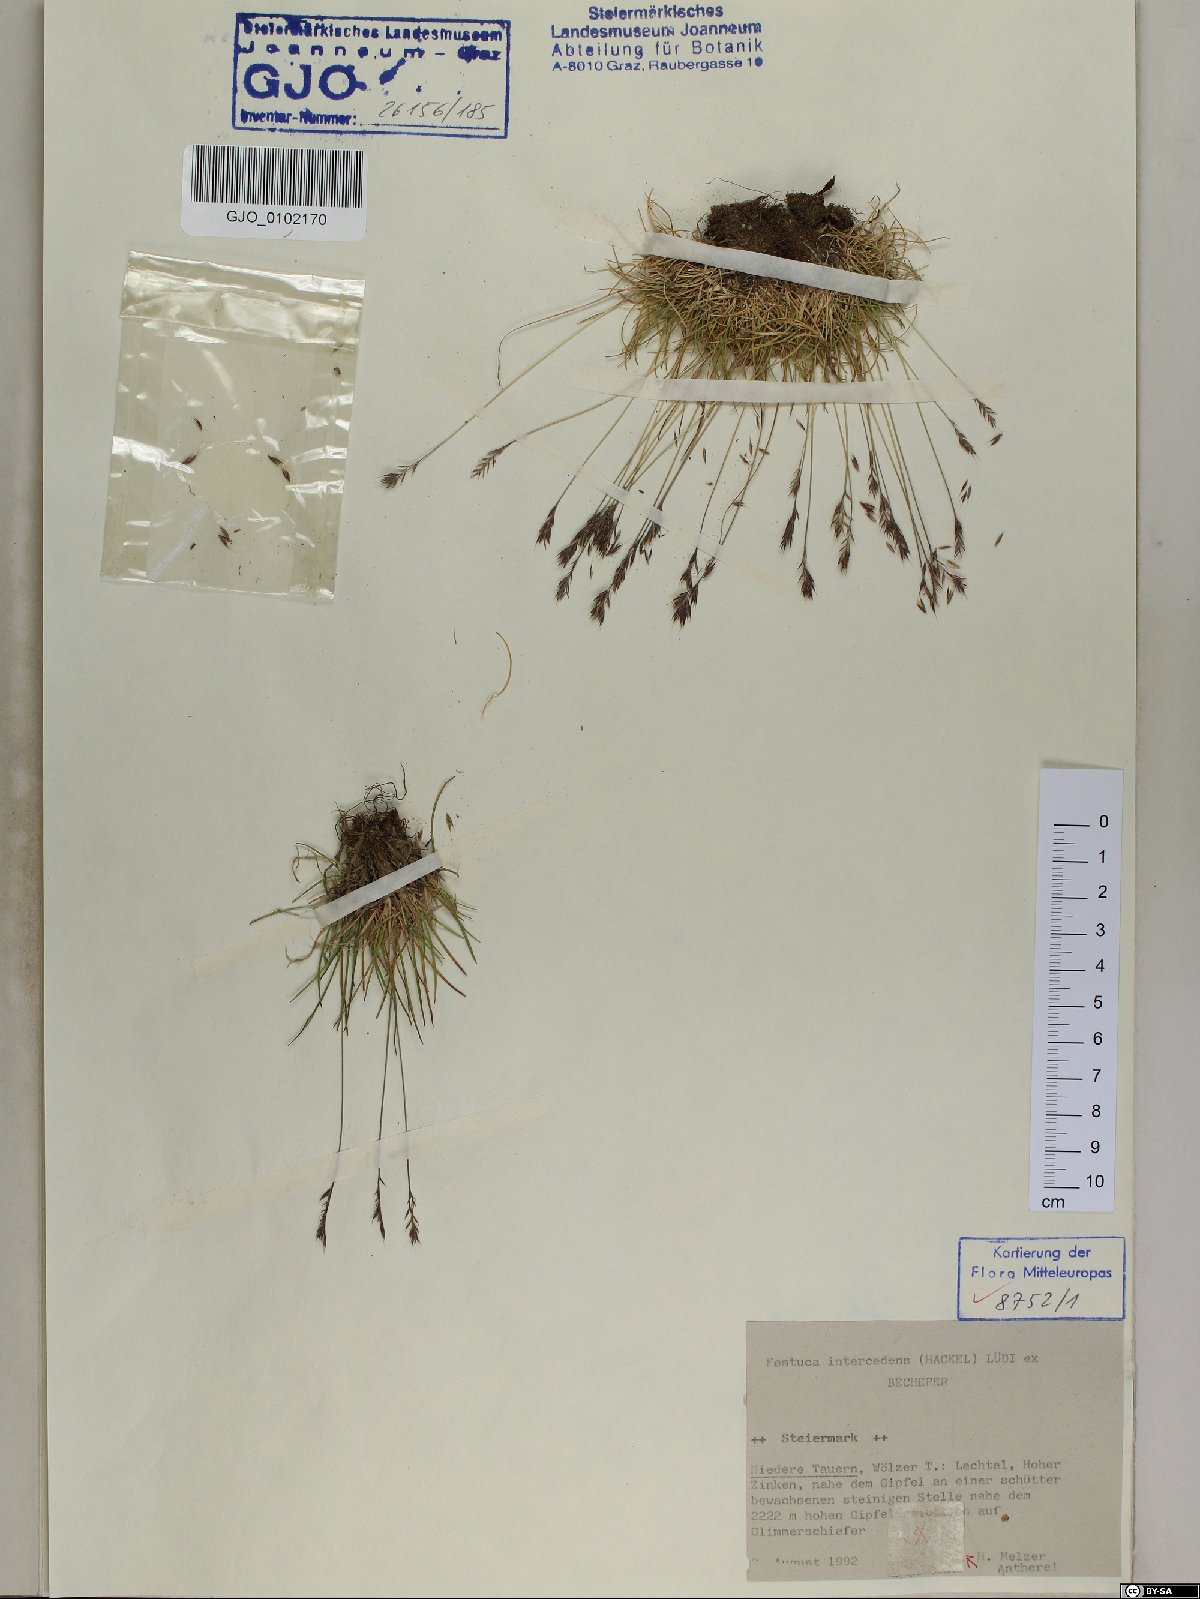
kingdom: Plantae
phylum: Tracheophyta
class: Liliopsida
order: Poales
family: Poaceae
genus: Festuca
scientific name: Festuca intercedens
